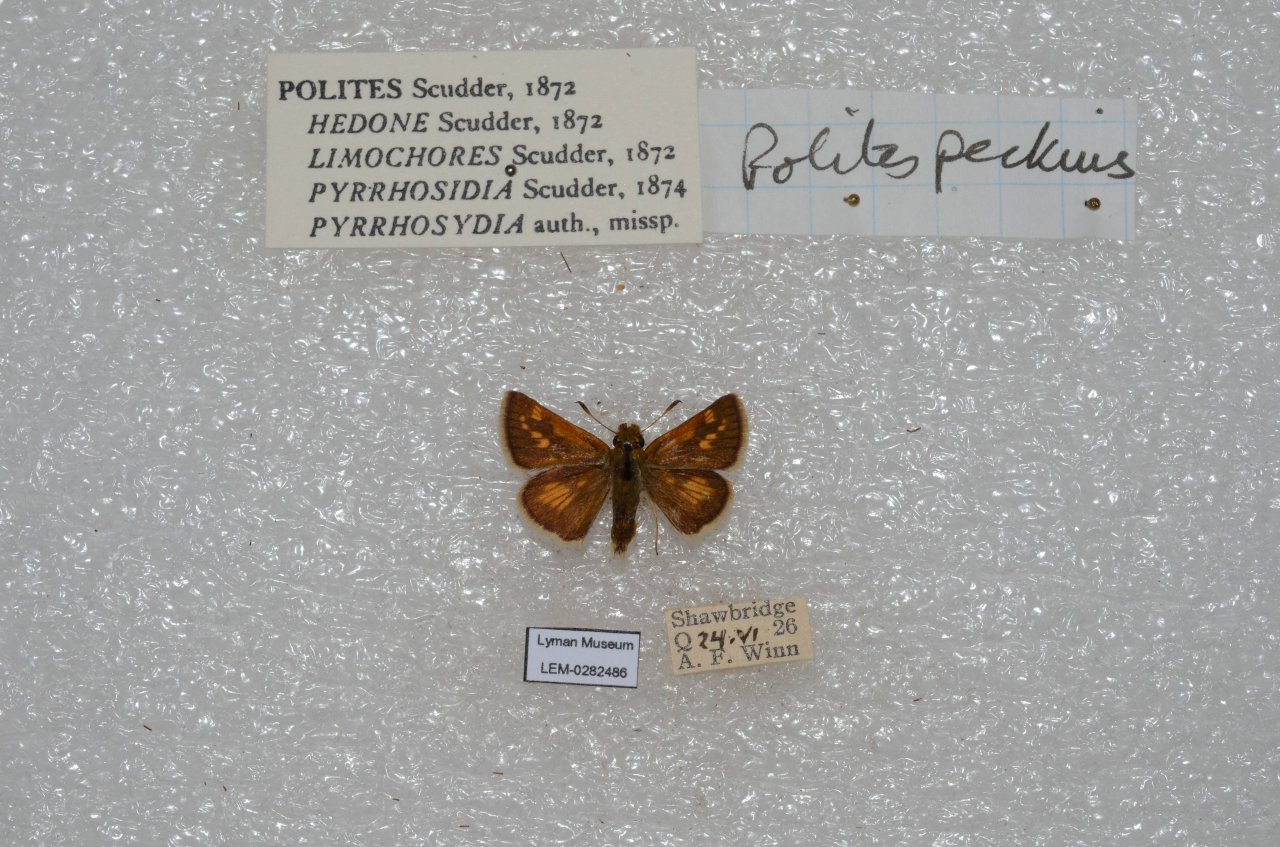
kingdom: Animalia
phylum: Arthropoda
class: Insecta
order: Lepidoptera
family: Hesperiidae
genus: Polites
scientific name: Polites coras
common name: Peck's Skipper
